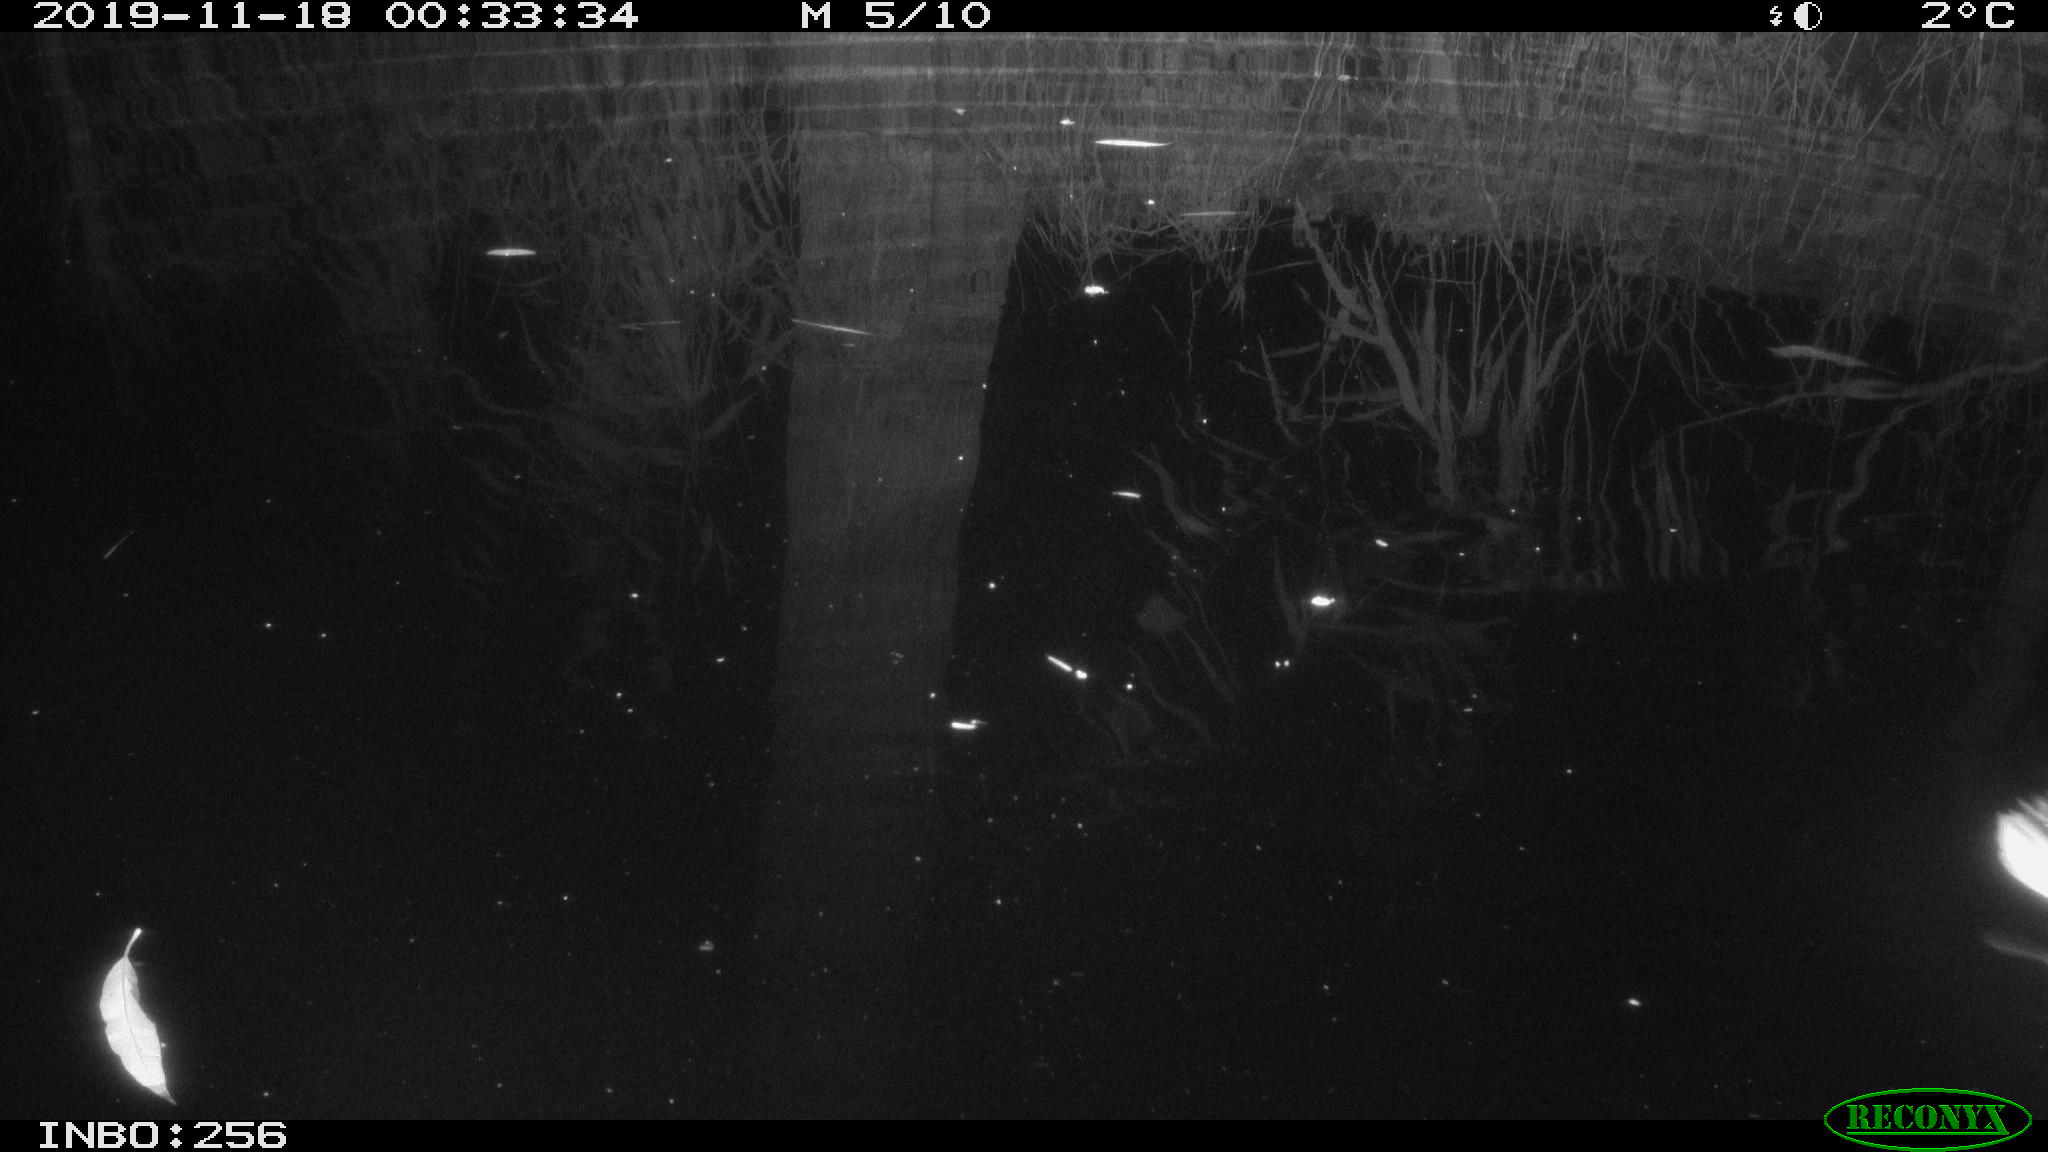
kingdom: Animalia
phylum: Chordata
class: Aves
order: Anseriformes
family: Anatidae
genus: Anas
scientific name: Anas platyrhynchos
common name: Mallard
